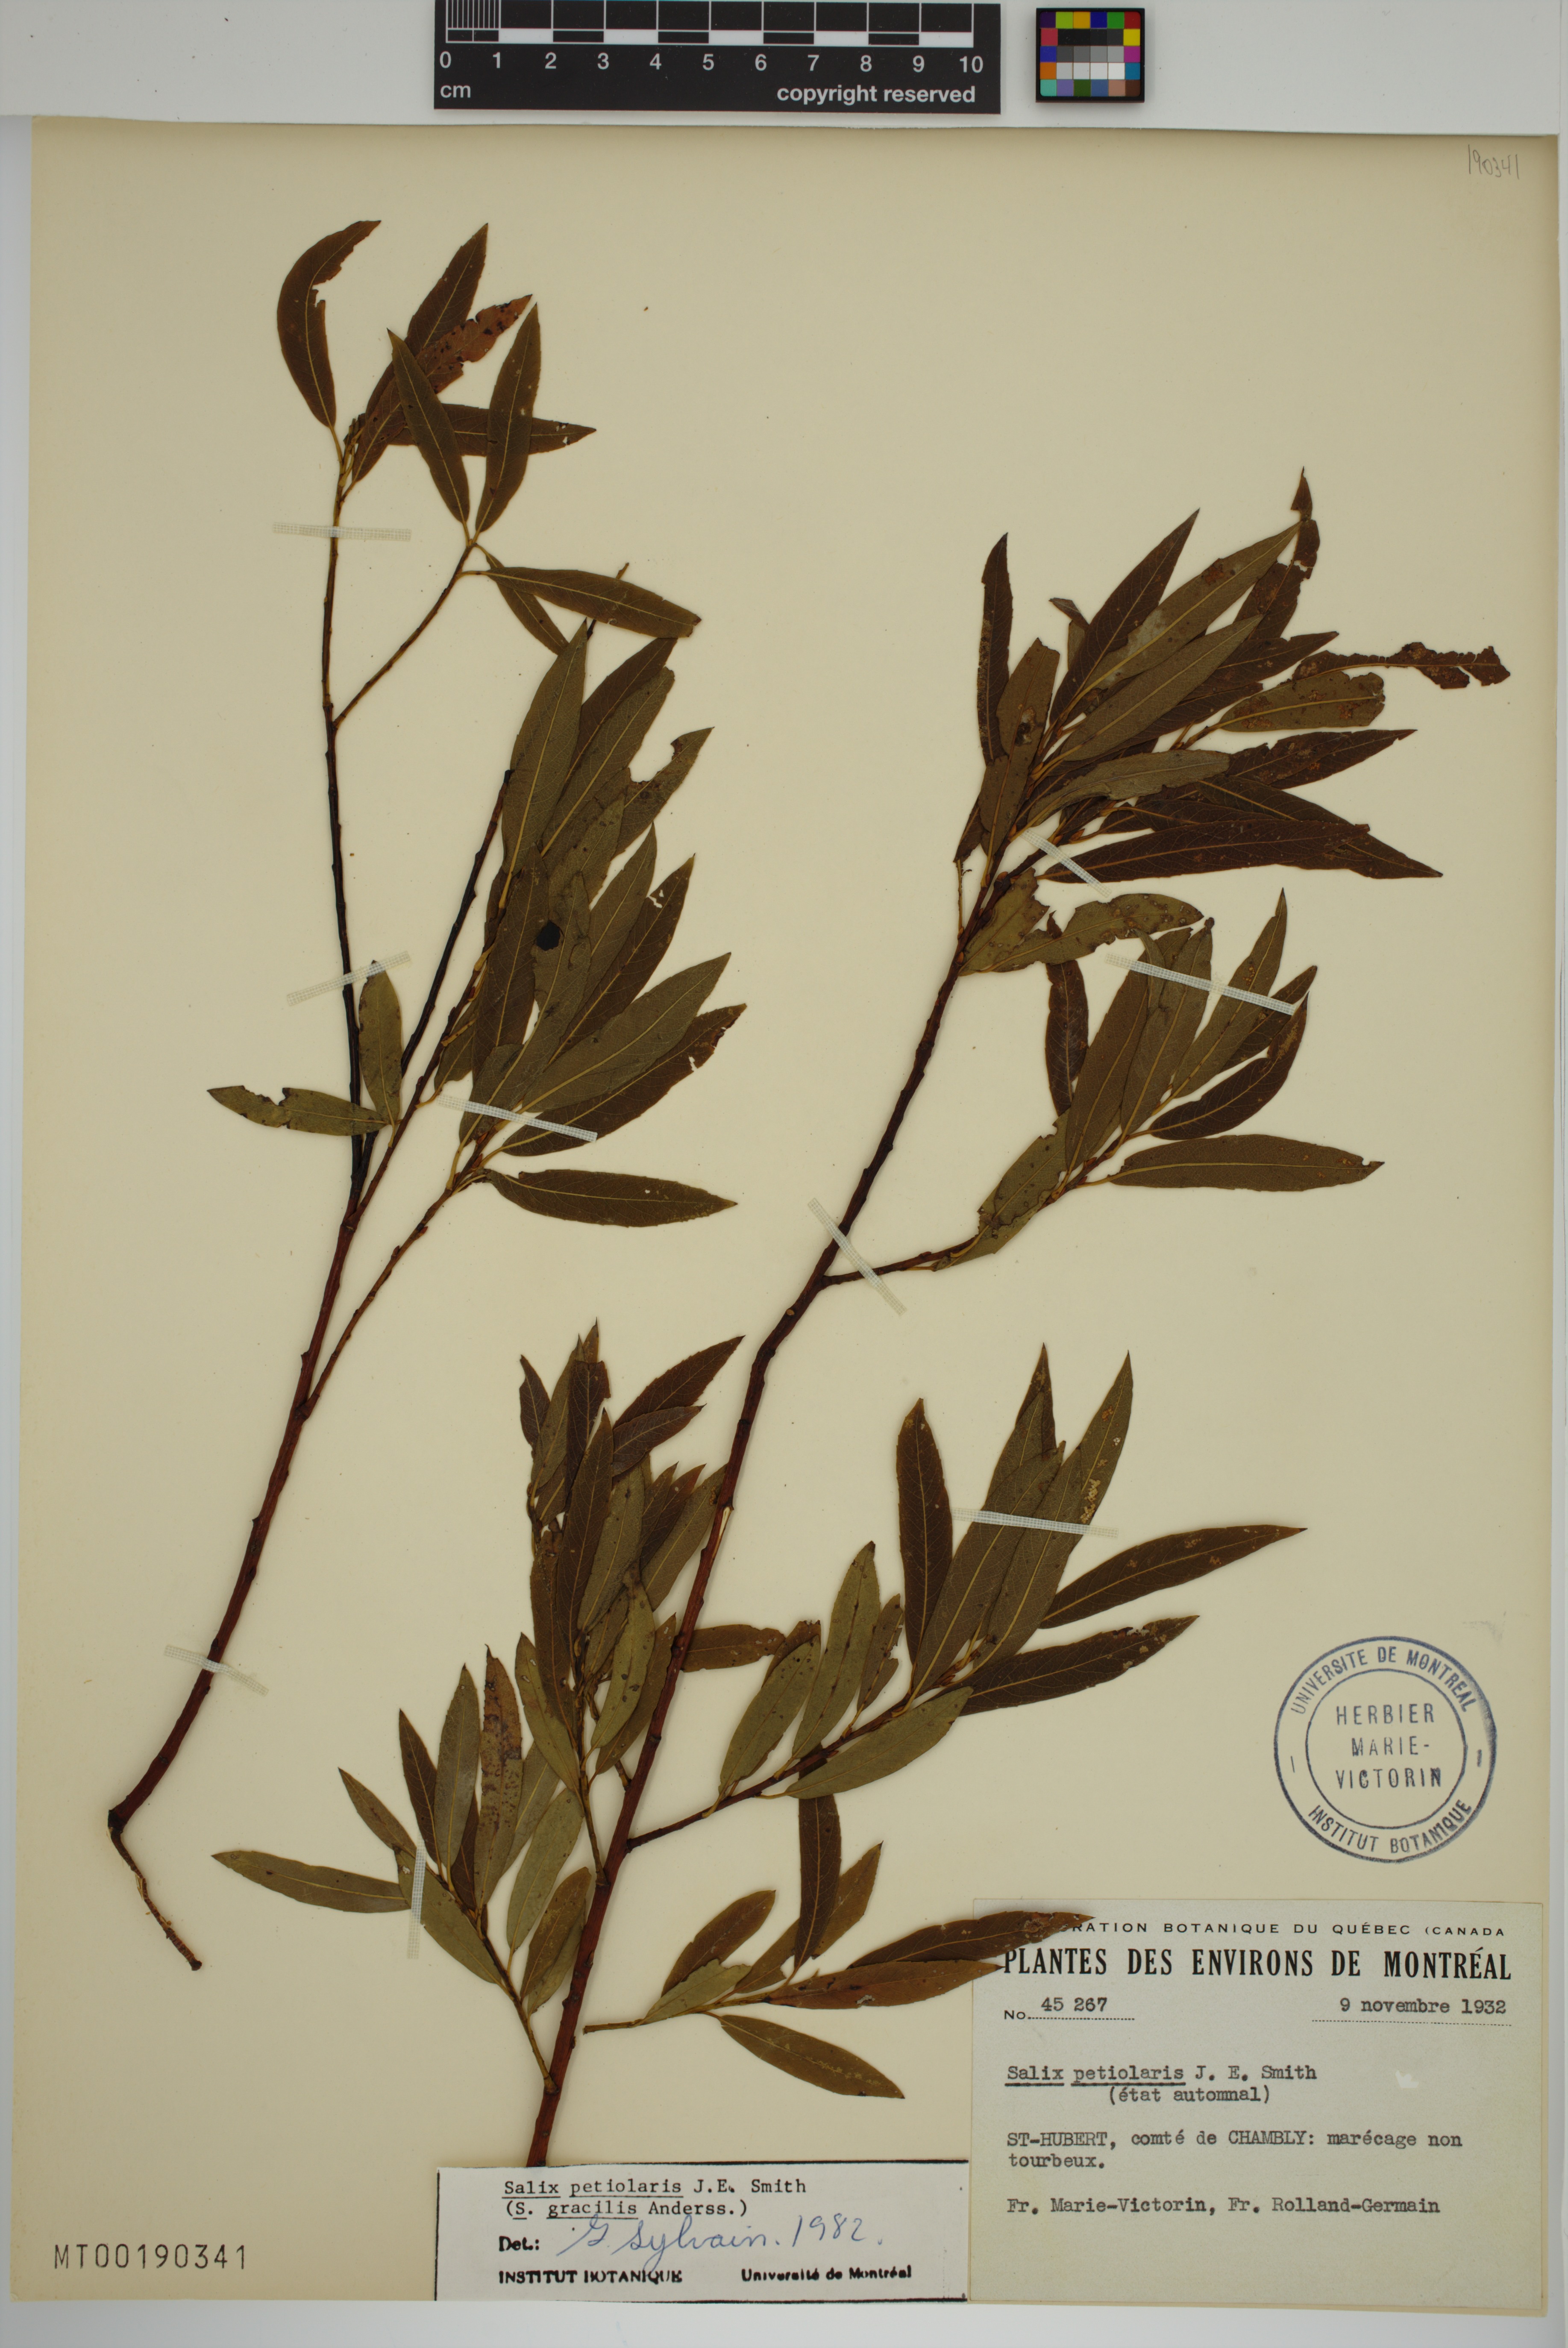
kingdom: Plantae
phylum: Tracheophyta
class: Magnoliopsida
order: Malpighiales
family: Salicaceae
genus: Salix
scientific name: Salix petiolaris
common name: Slender willow
